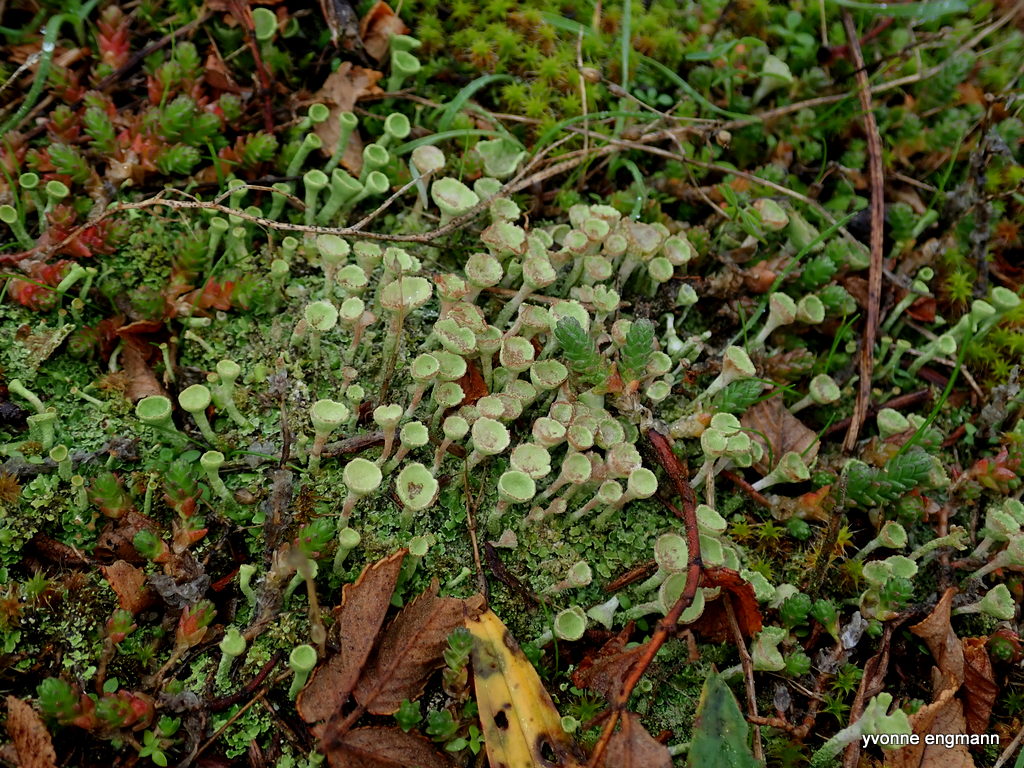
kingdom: Fungi
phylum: Ascomycota
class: Lecanoromycetes
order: Lecanorales
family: Cladoniaceae
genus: Cladonia
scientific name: Cladonia
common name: brungrøn bægerlav
